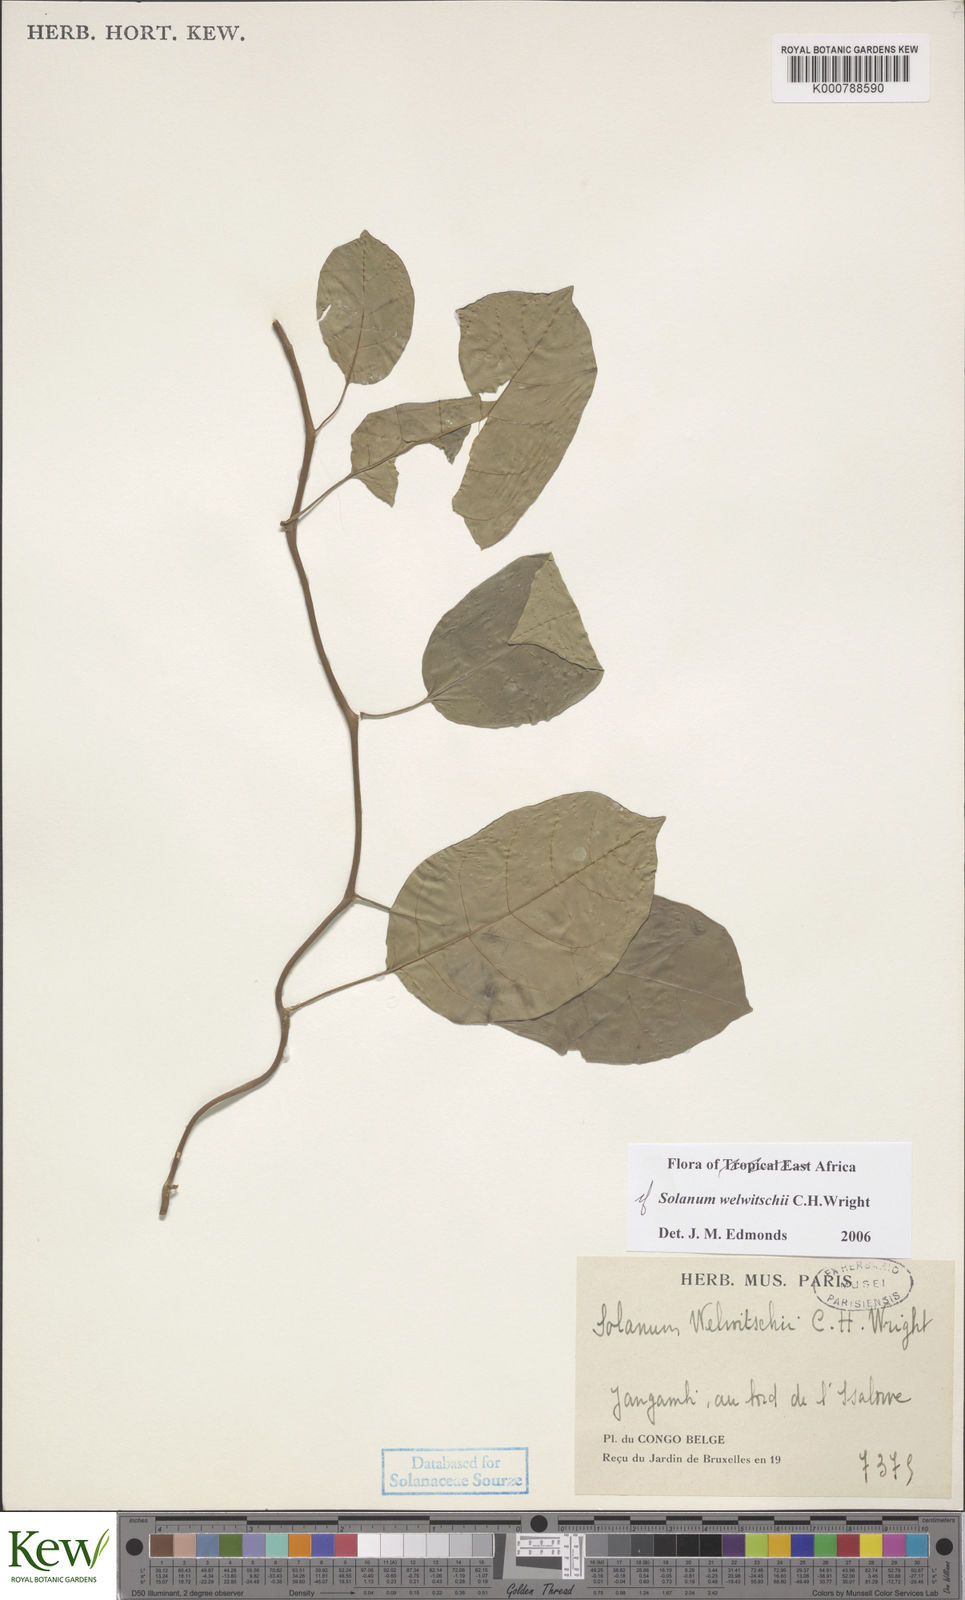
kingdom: Plantae
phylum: Tracheophyta
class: Magnoliopsida
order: Solanales
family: Solanaceae
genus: Solanum
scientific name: Solanum terminale
